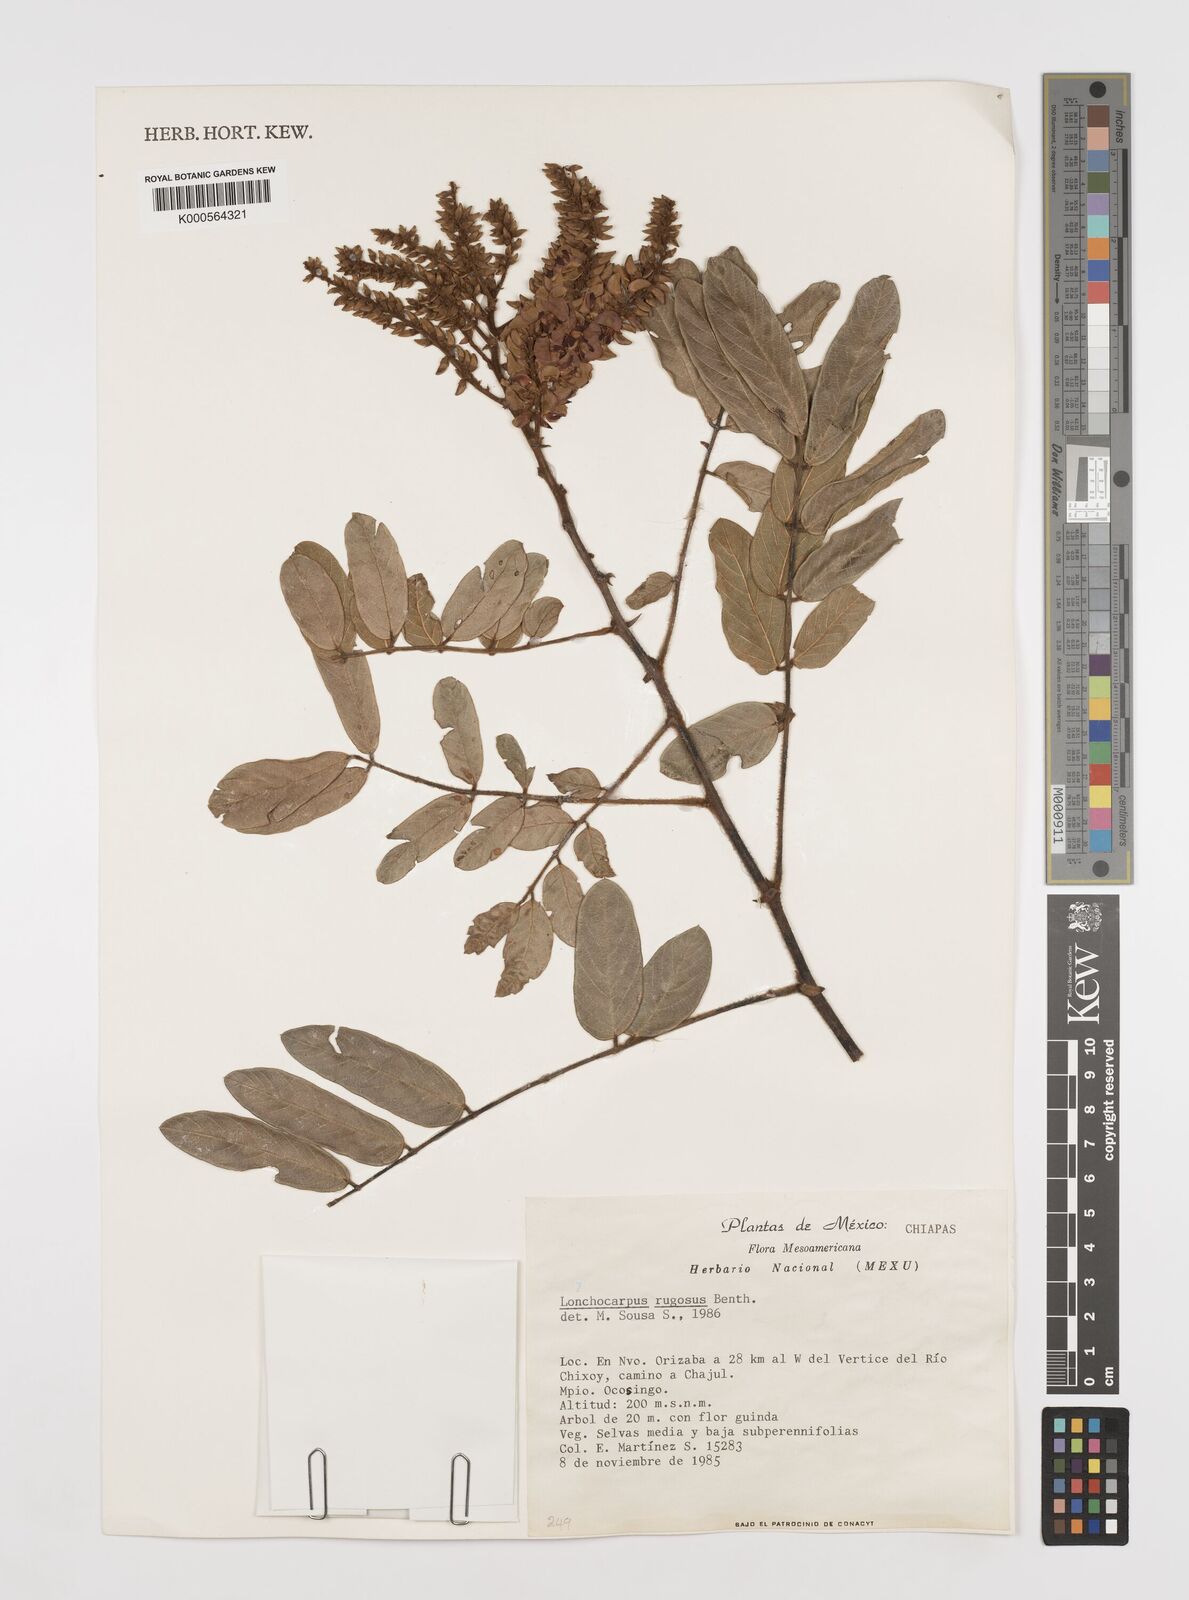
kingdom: Plantae
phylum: Tracheophyta
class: Magnoliopsida
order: Fabales
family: Fabaceae
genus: Lonchocarpus
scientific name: Lonchocarpus rugosus
